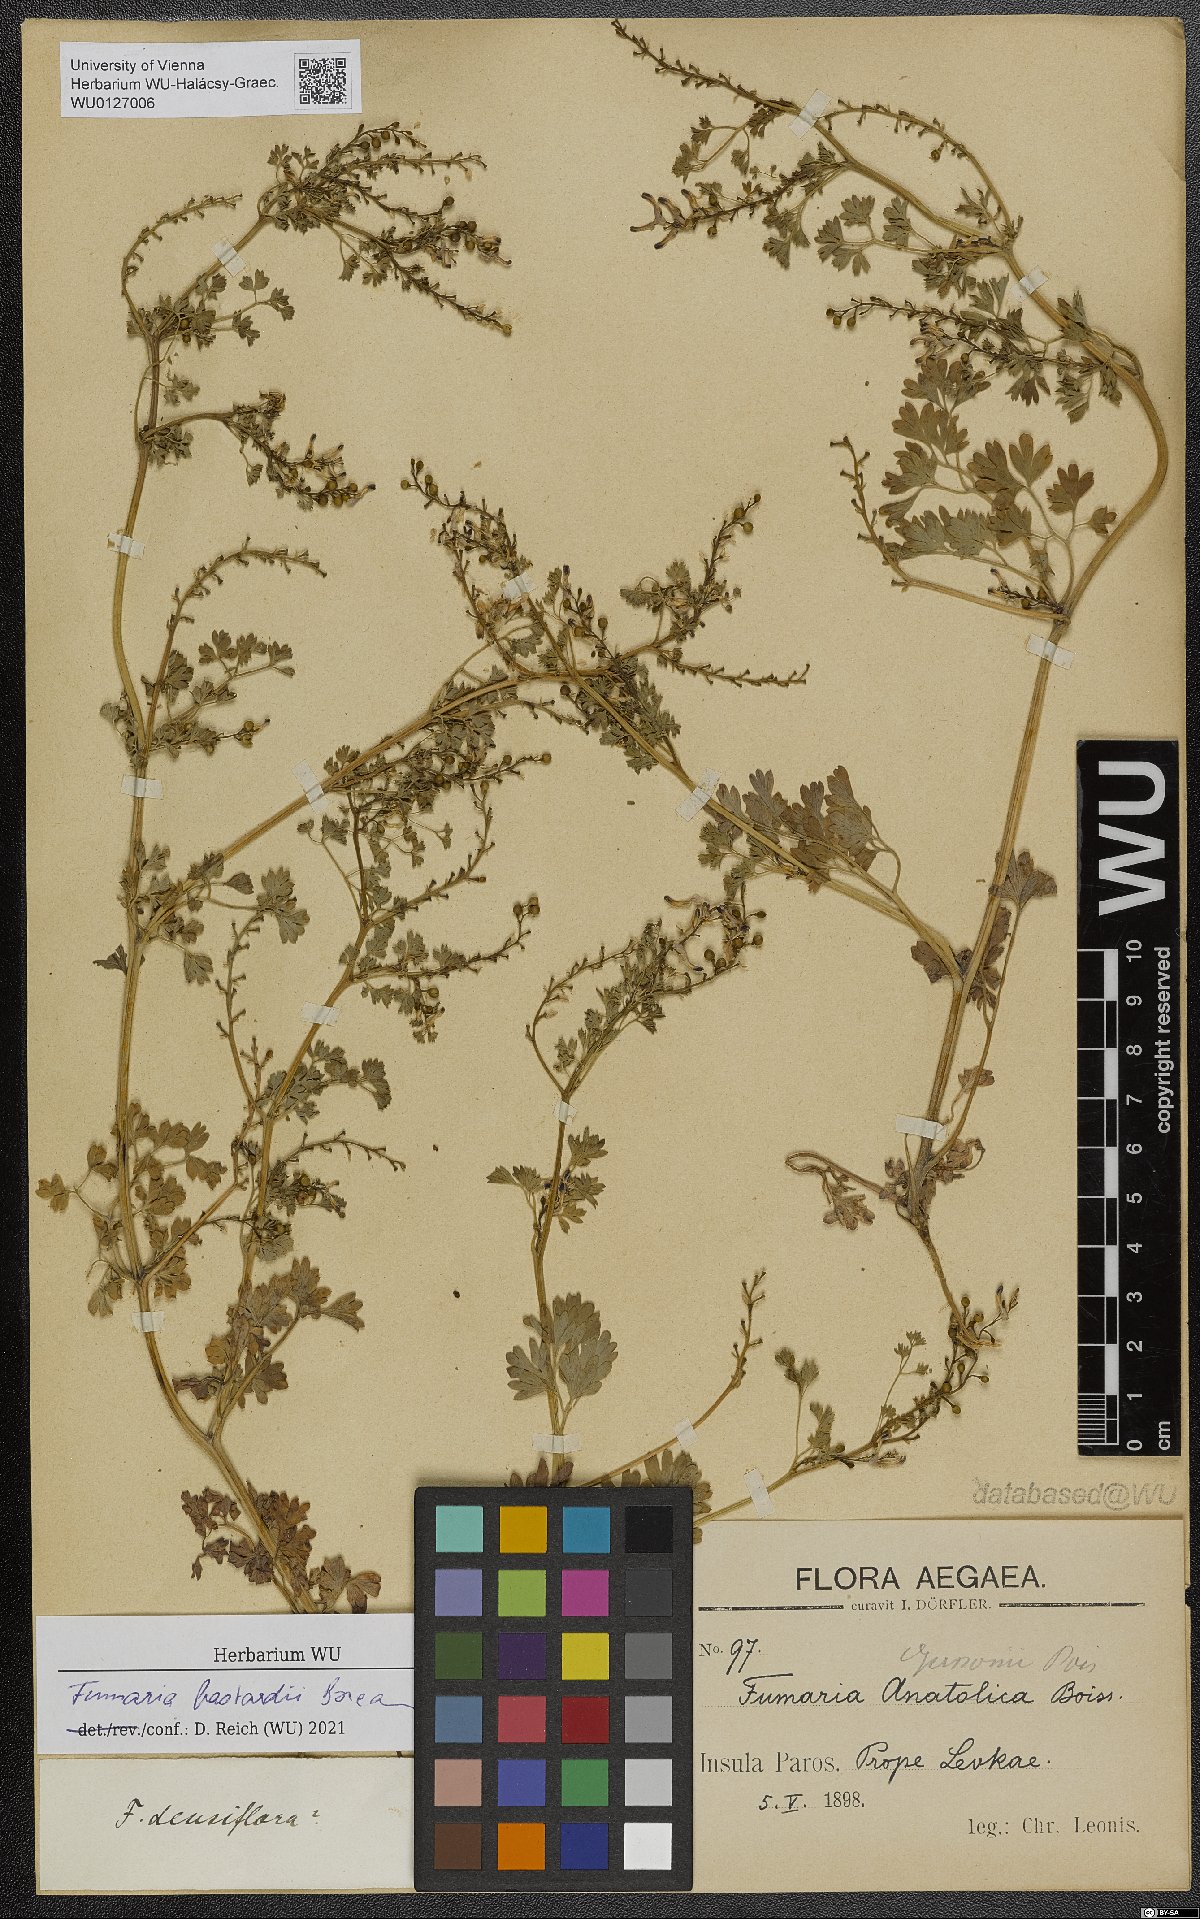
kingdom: Plantae
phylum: Tracheophyta
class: Magnoliopsida
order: Ranunculales
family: Papaveraceae
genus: Fumaria
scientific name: Fumaria bastardii
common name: Tall ramping-fumitory
